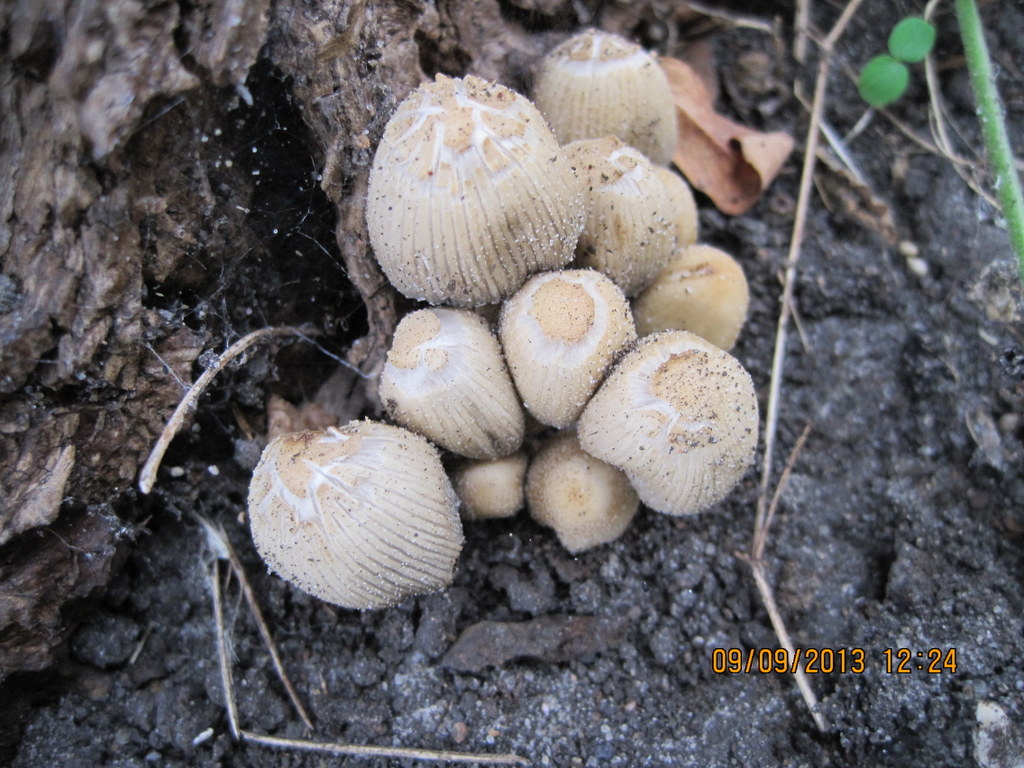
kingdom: Fungi
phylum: Basidiomycota
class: Agaricomycetes
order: Agaricales
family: Psathyrellaceae
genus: Coprinellus
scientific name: Coprinellus micaceus
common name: glimmer-blækhat
